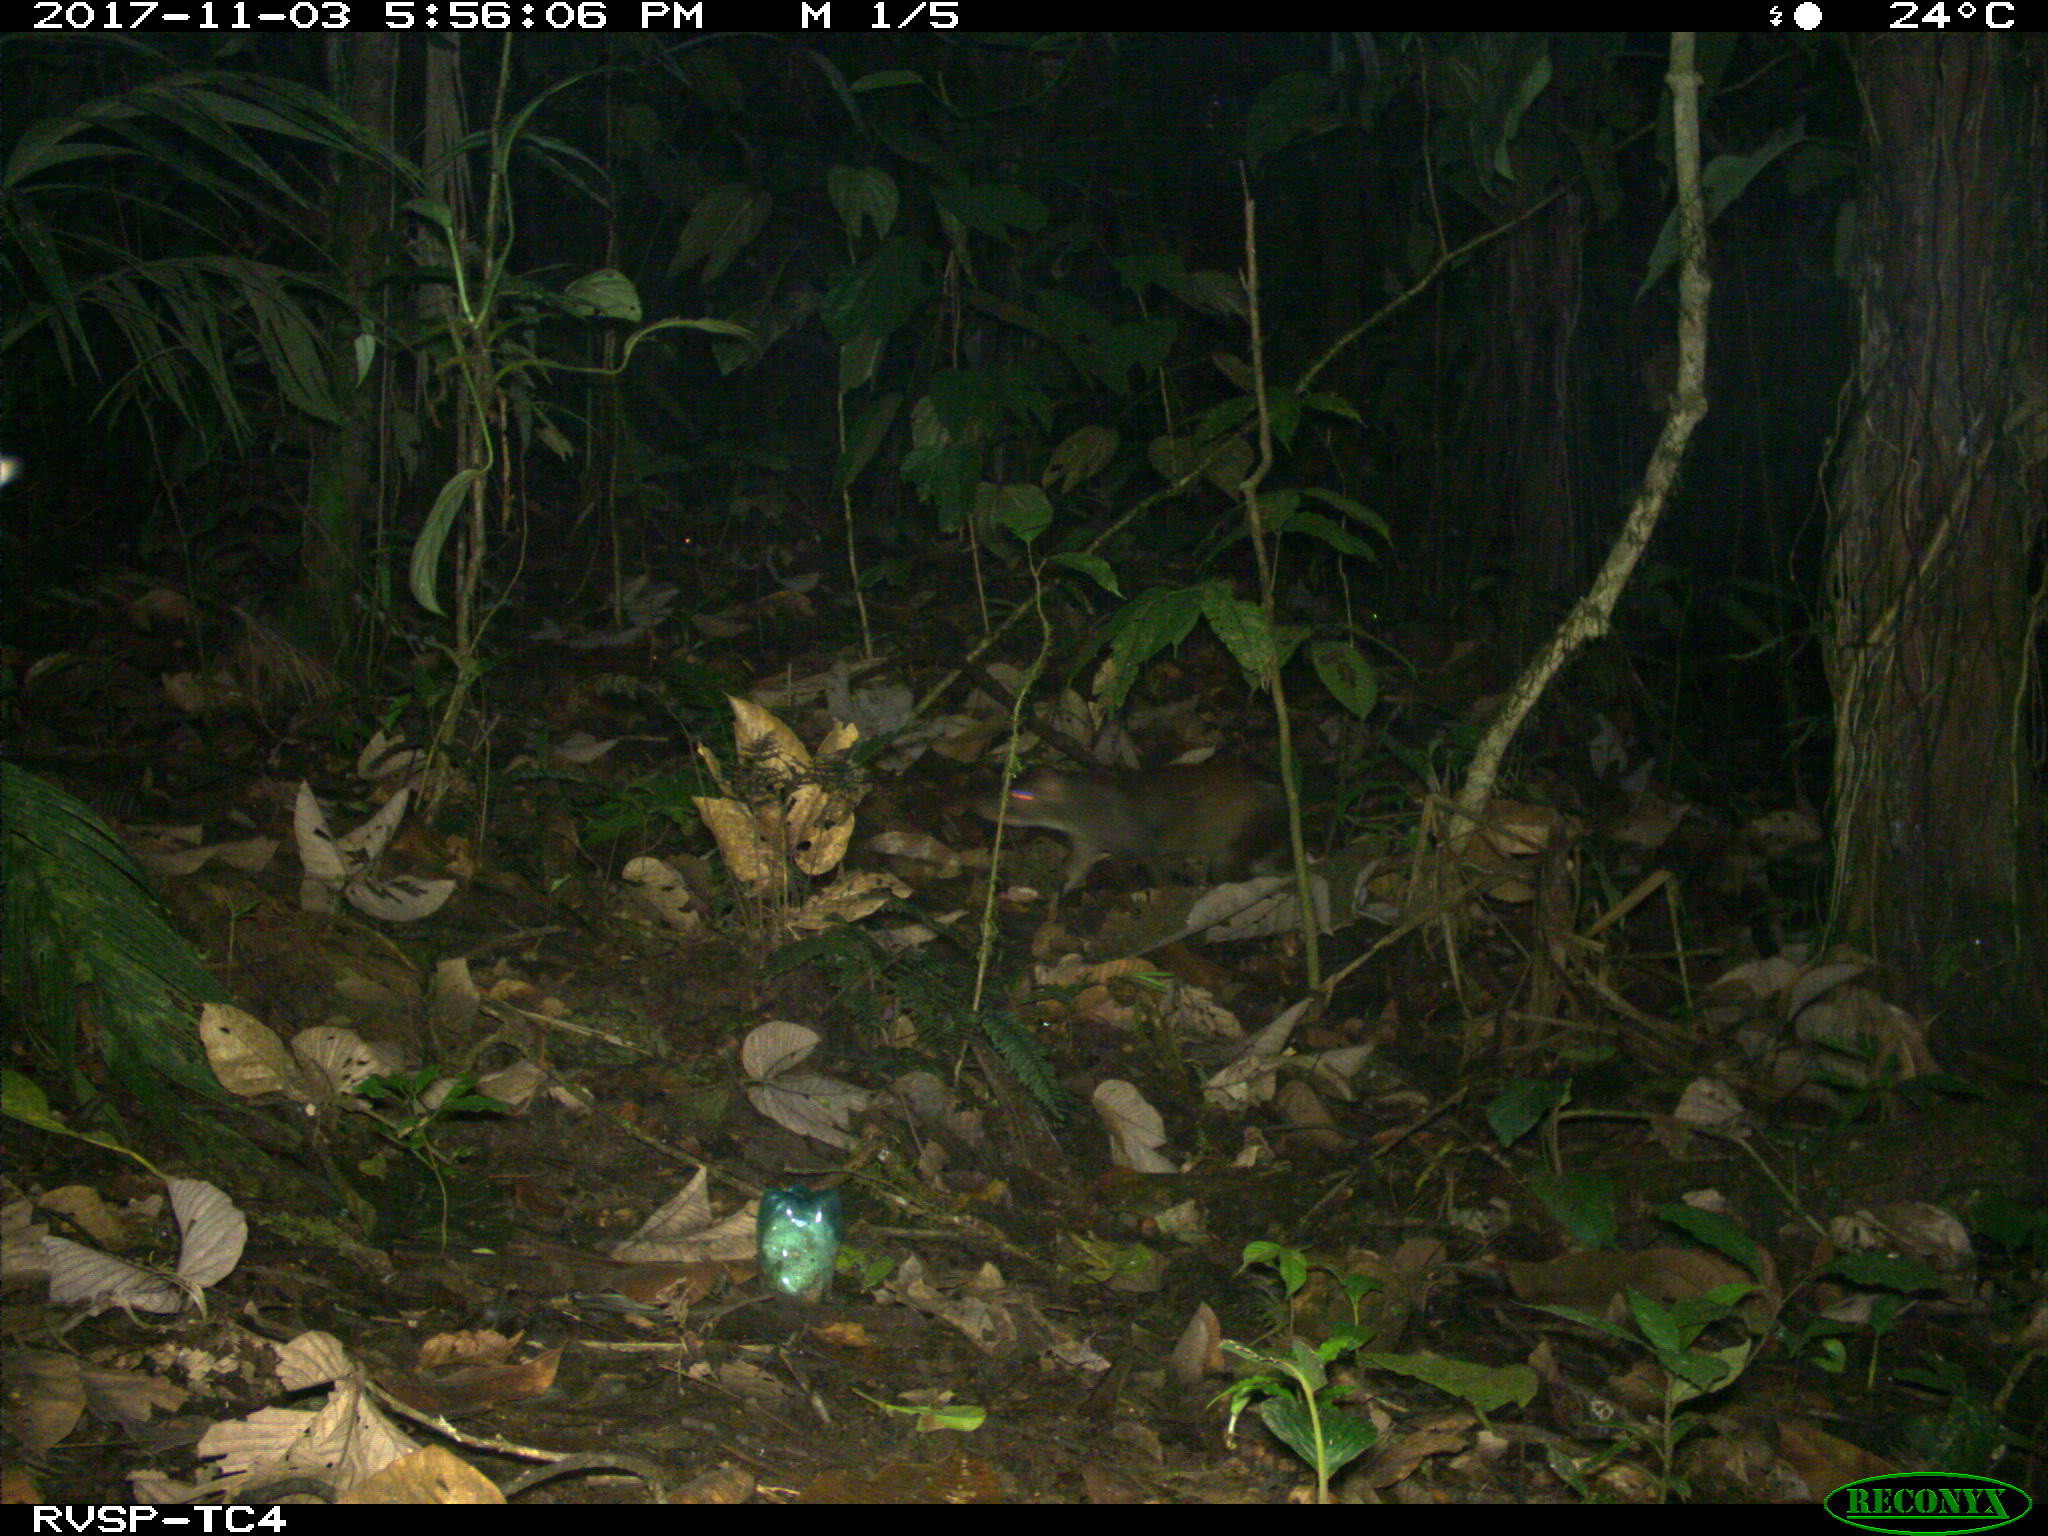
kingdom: Animalia
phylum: Chordata
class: Mammalia
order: Rodentia
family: Dasyproctidae
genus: Dasyprocta
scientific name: Dasyprocta punctata
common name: Central american agouti
